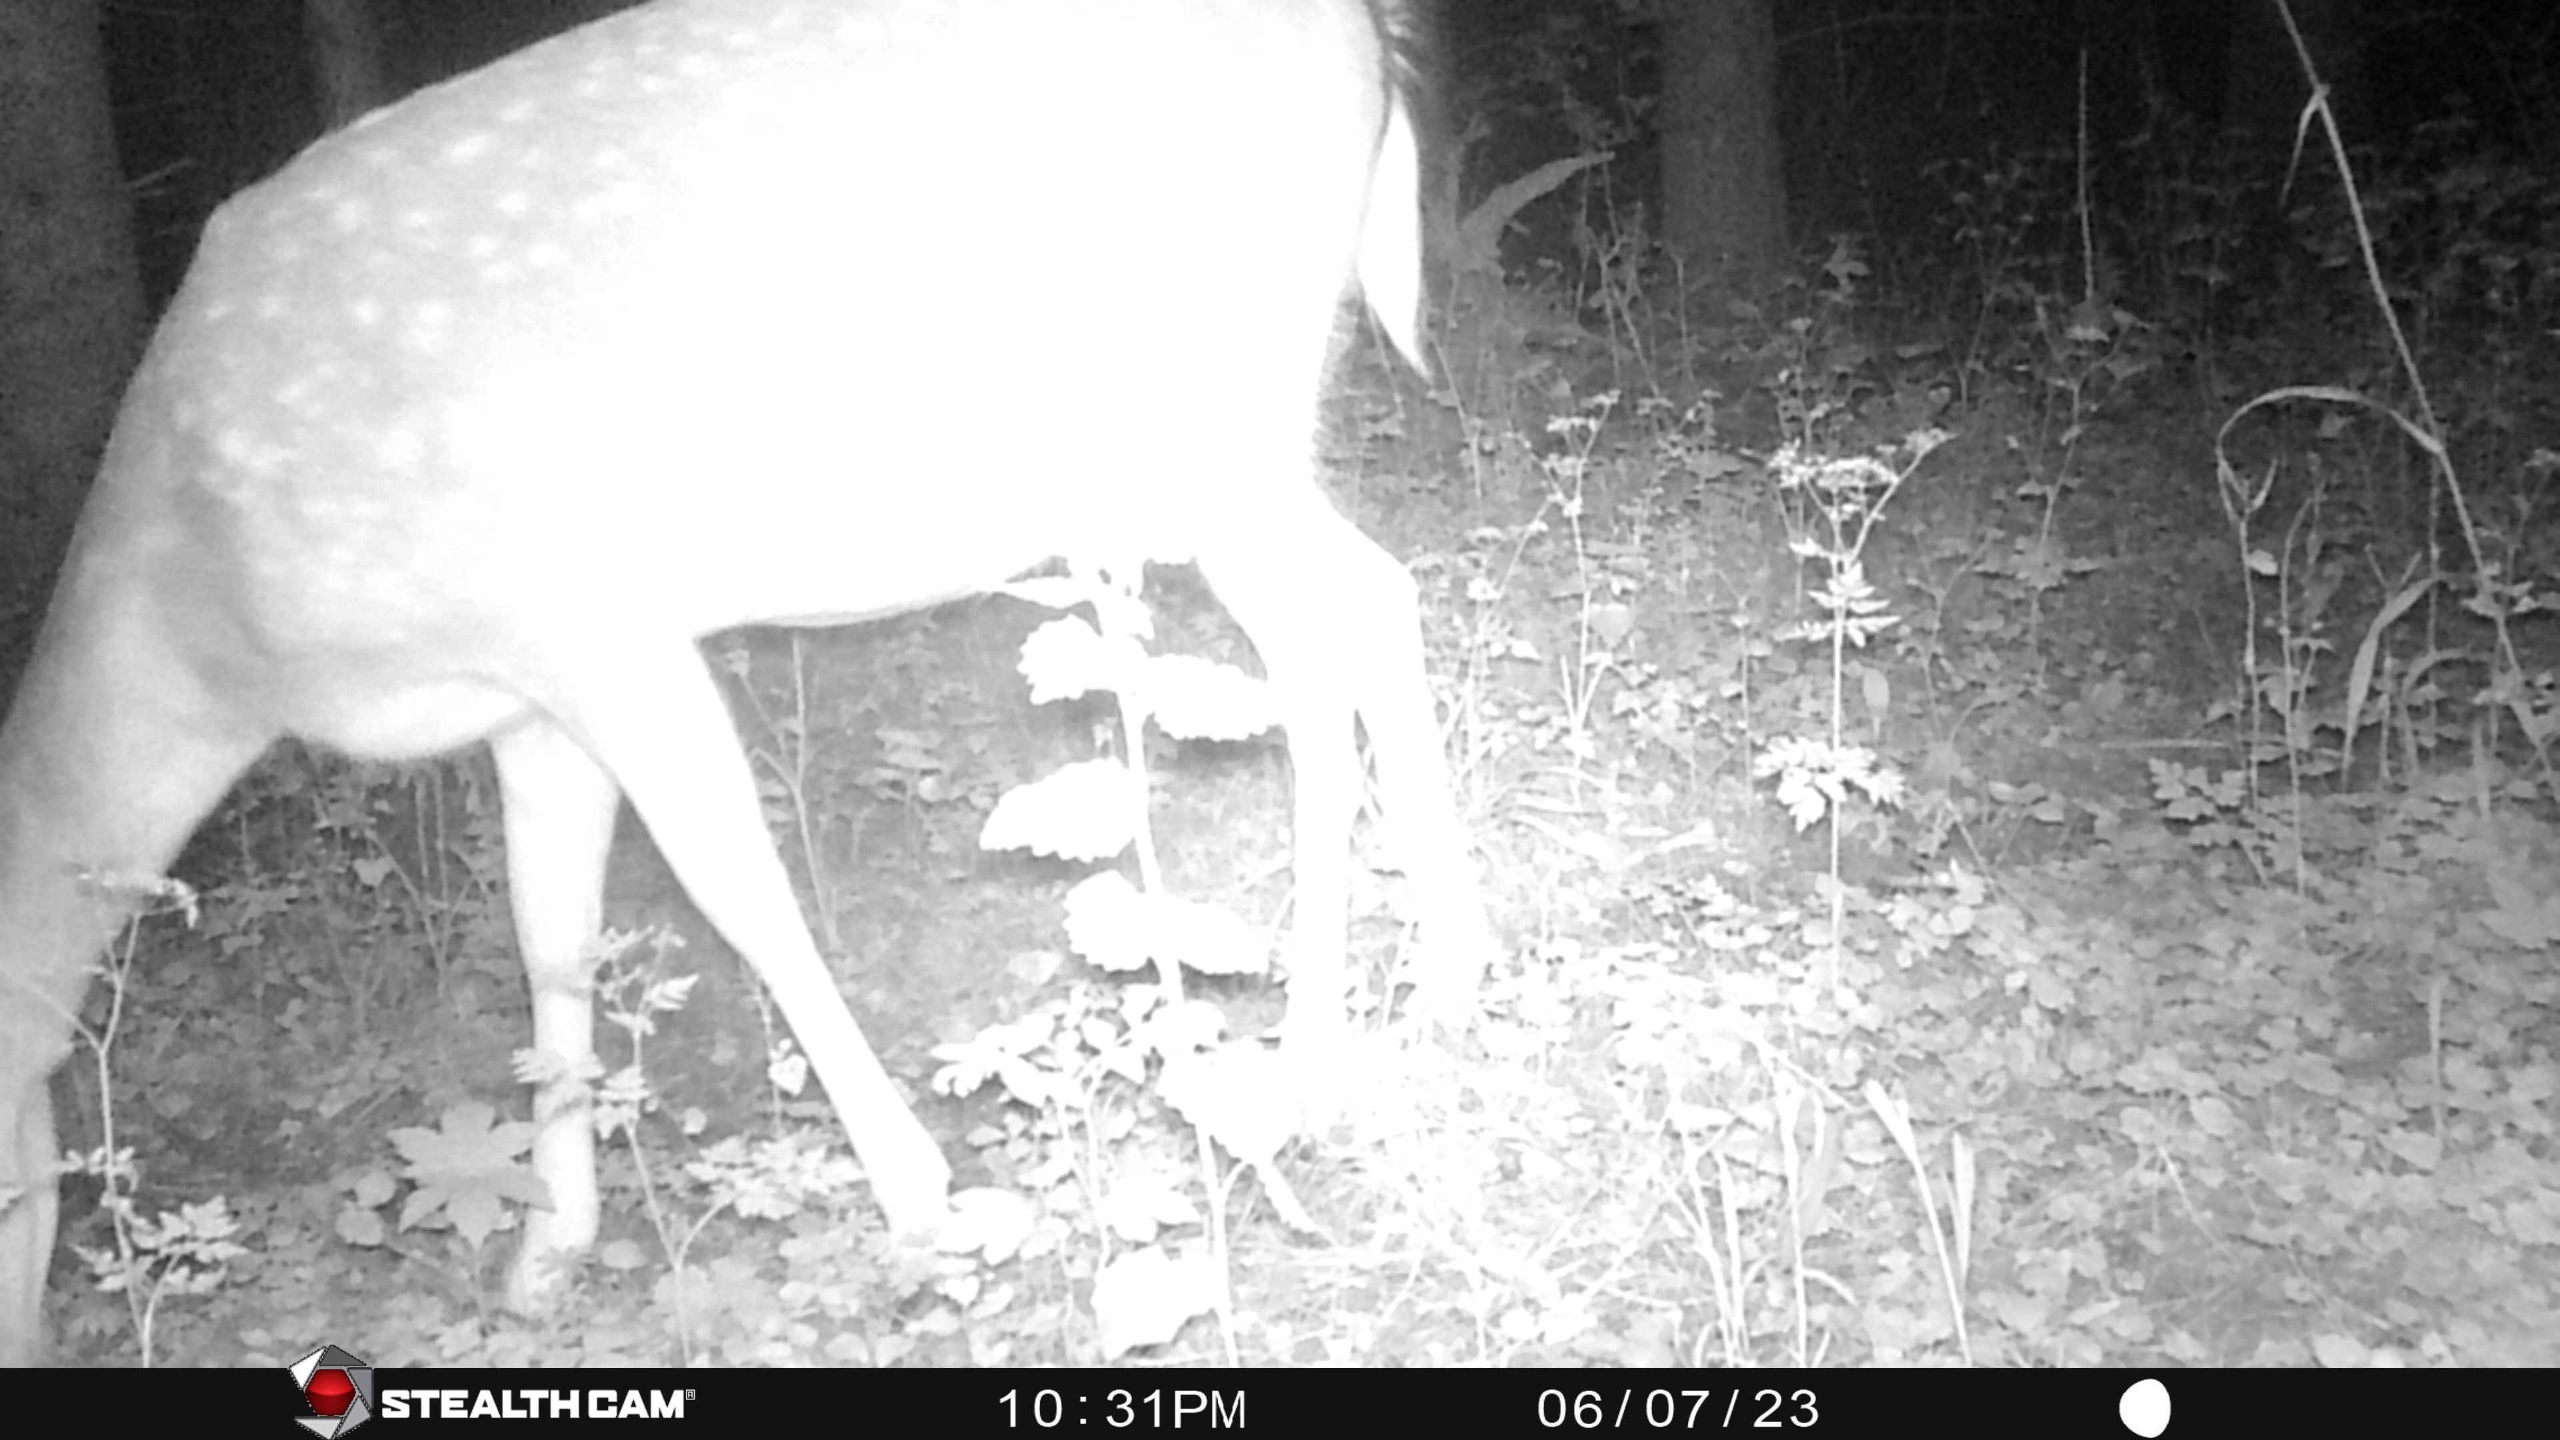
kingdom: Animalia
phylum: Chordata
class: Mammalia
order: Artiodactyla
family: Cervidae
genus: Dama
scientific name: Dama dama
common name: Dådyr
